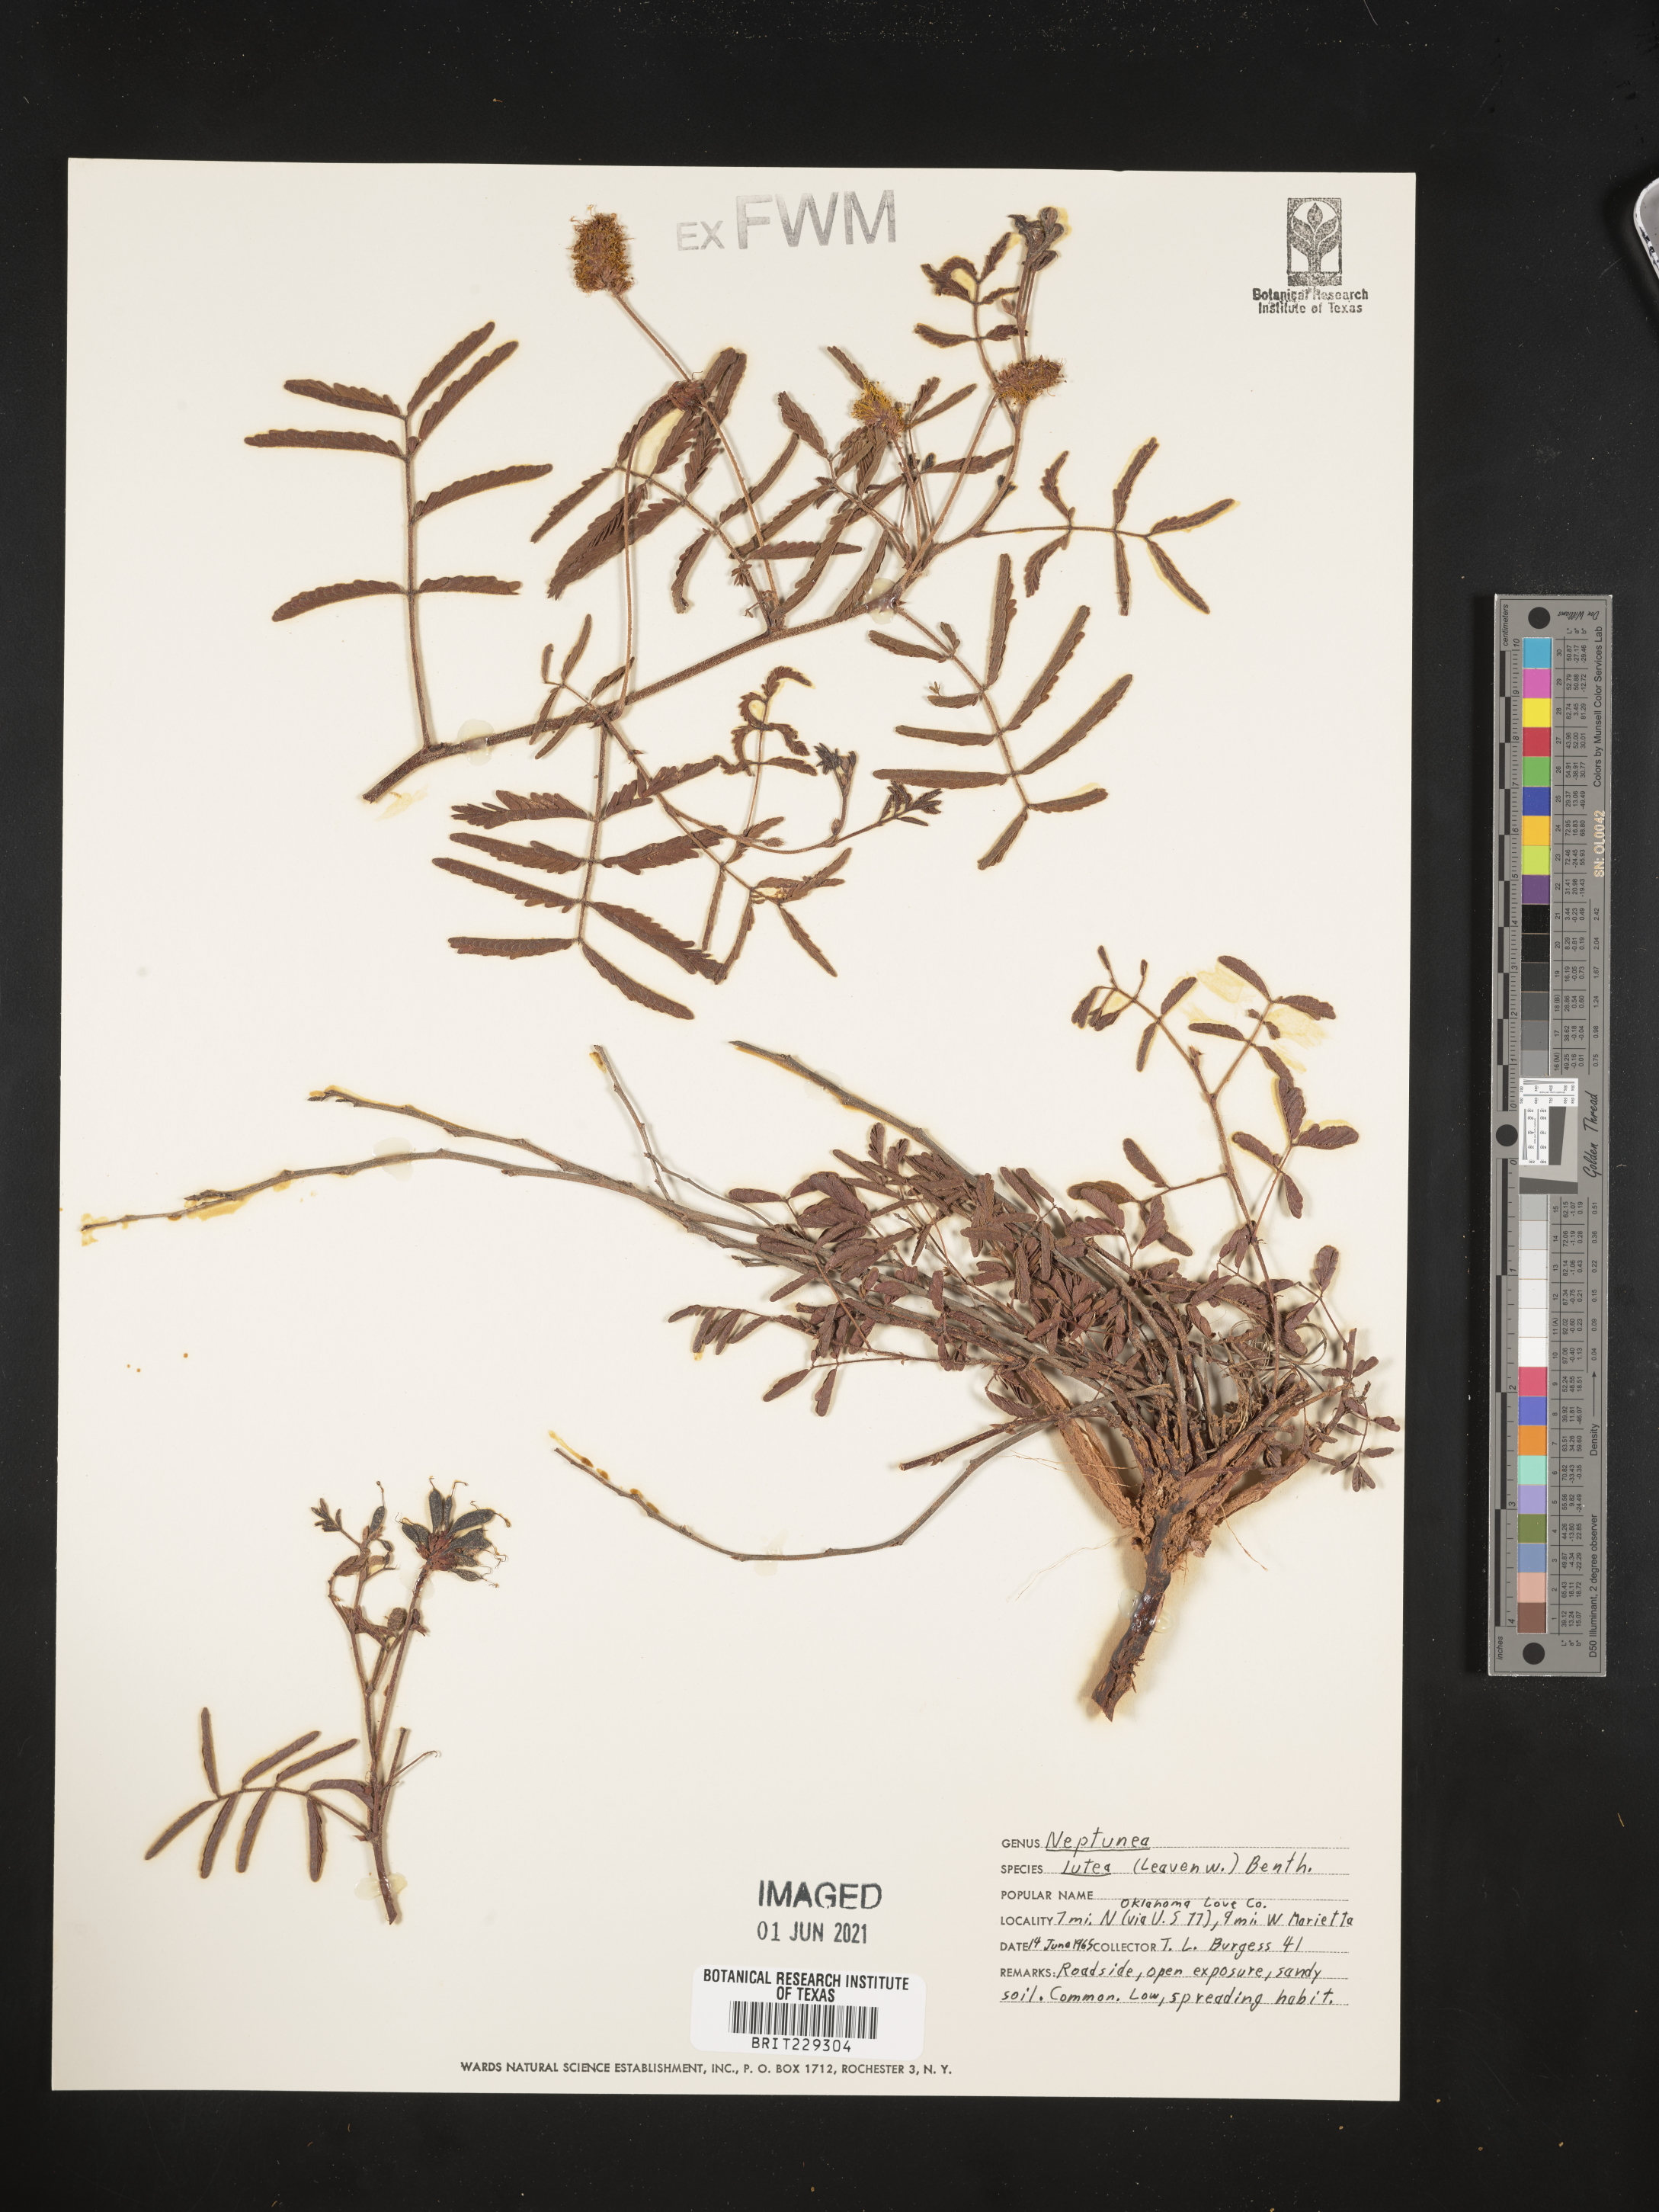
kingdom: Plantae
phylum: Tracheophyta
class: Magnoliopsida
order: Fabales
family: Fabaceae
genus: Neptunia
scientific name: Neptunia lutea
